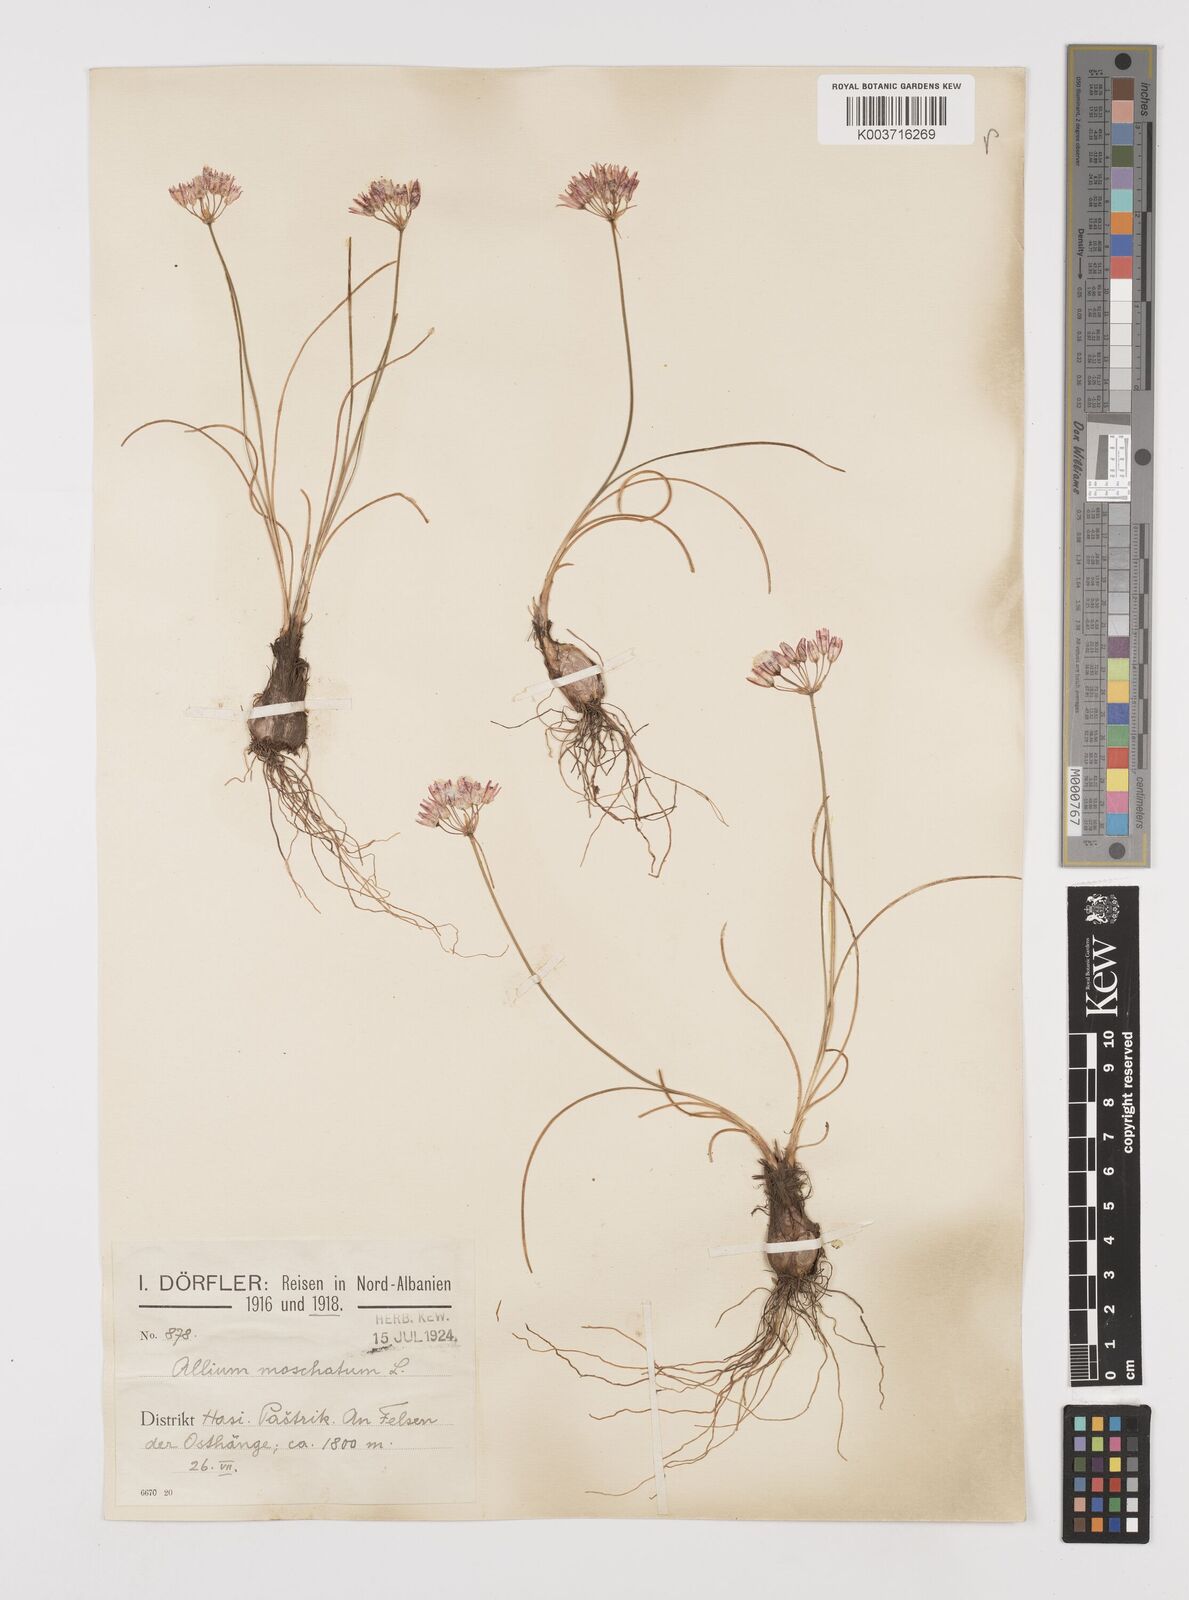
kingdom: Plantae
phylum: Tracheophyta
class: Liliopsida
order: Asparagales
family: Amaryllidaceae
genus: Allium
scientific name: Allium moschatum
